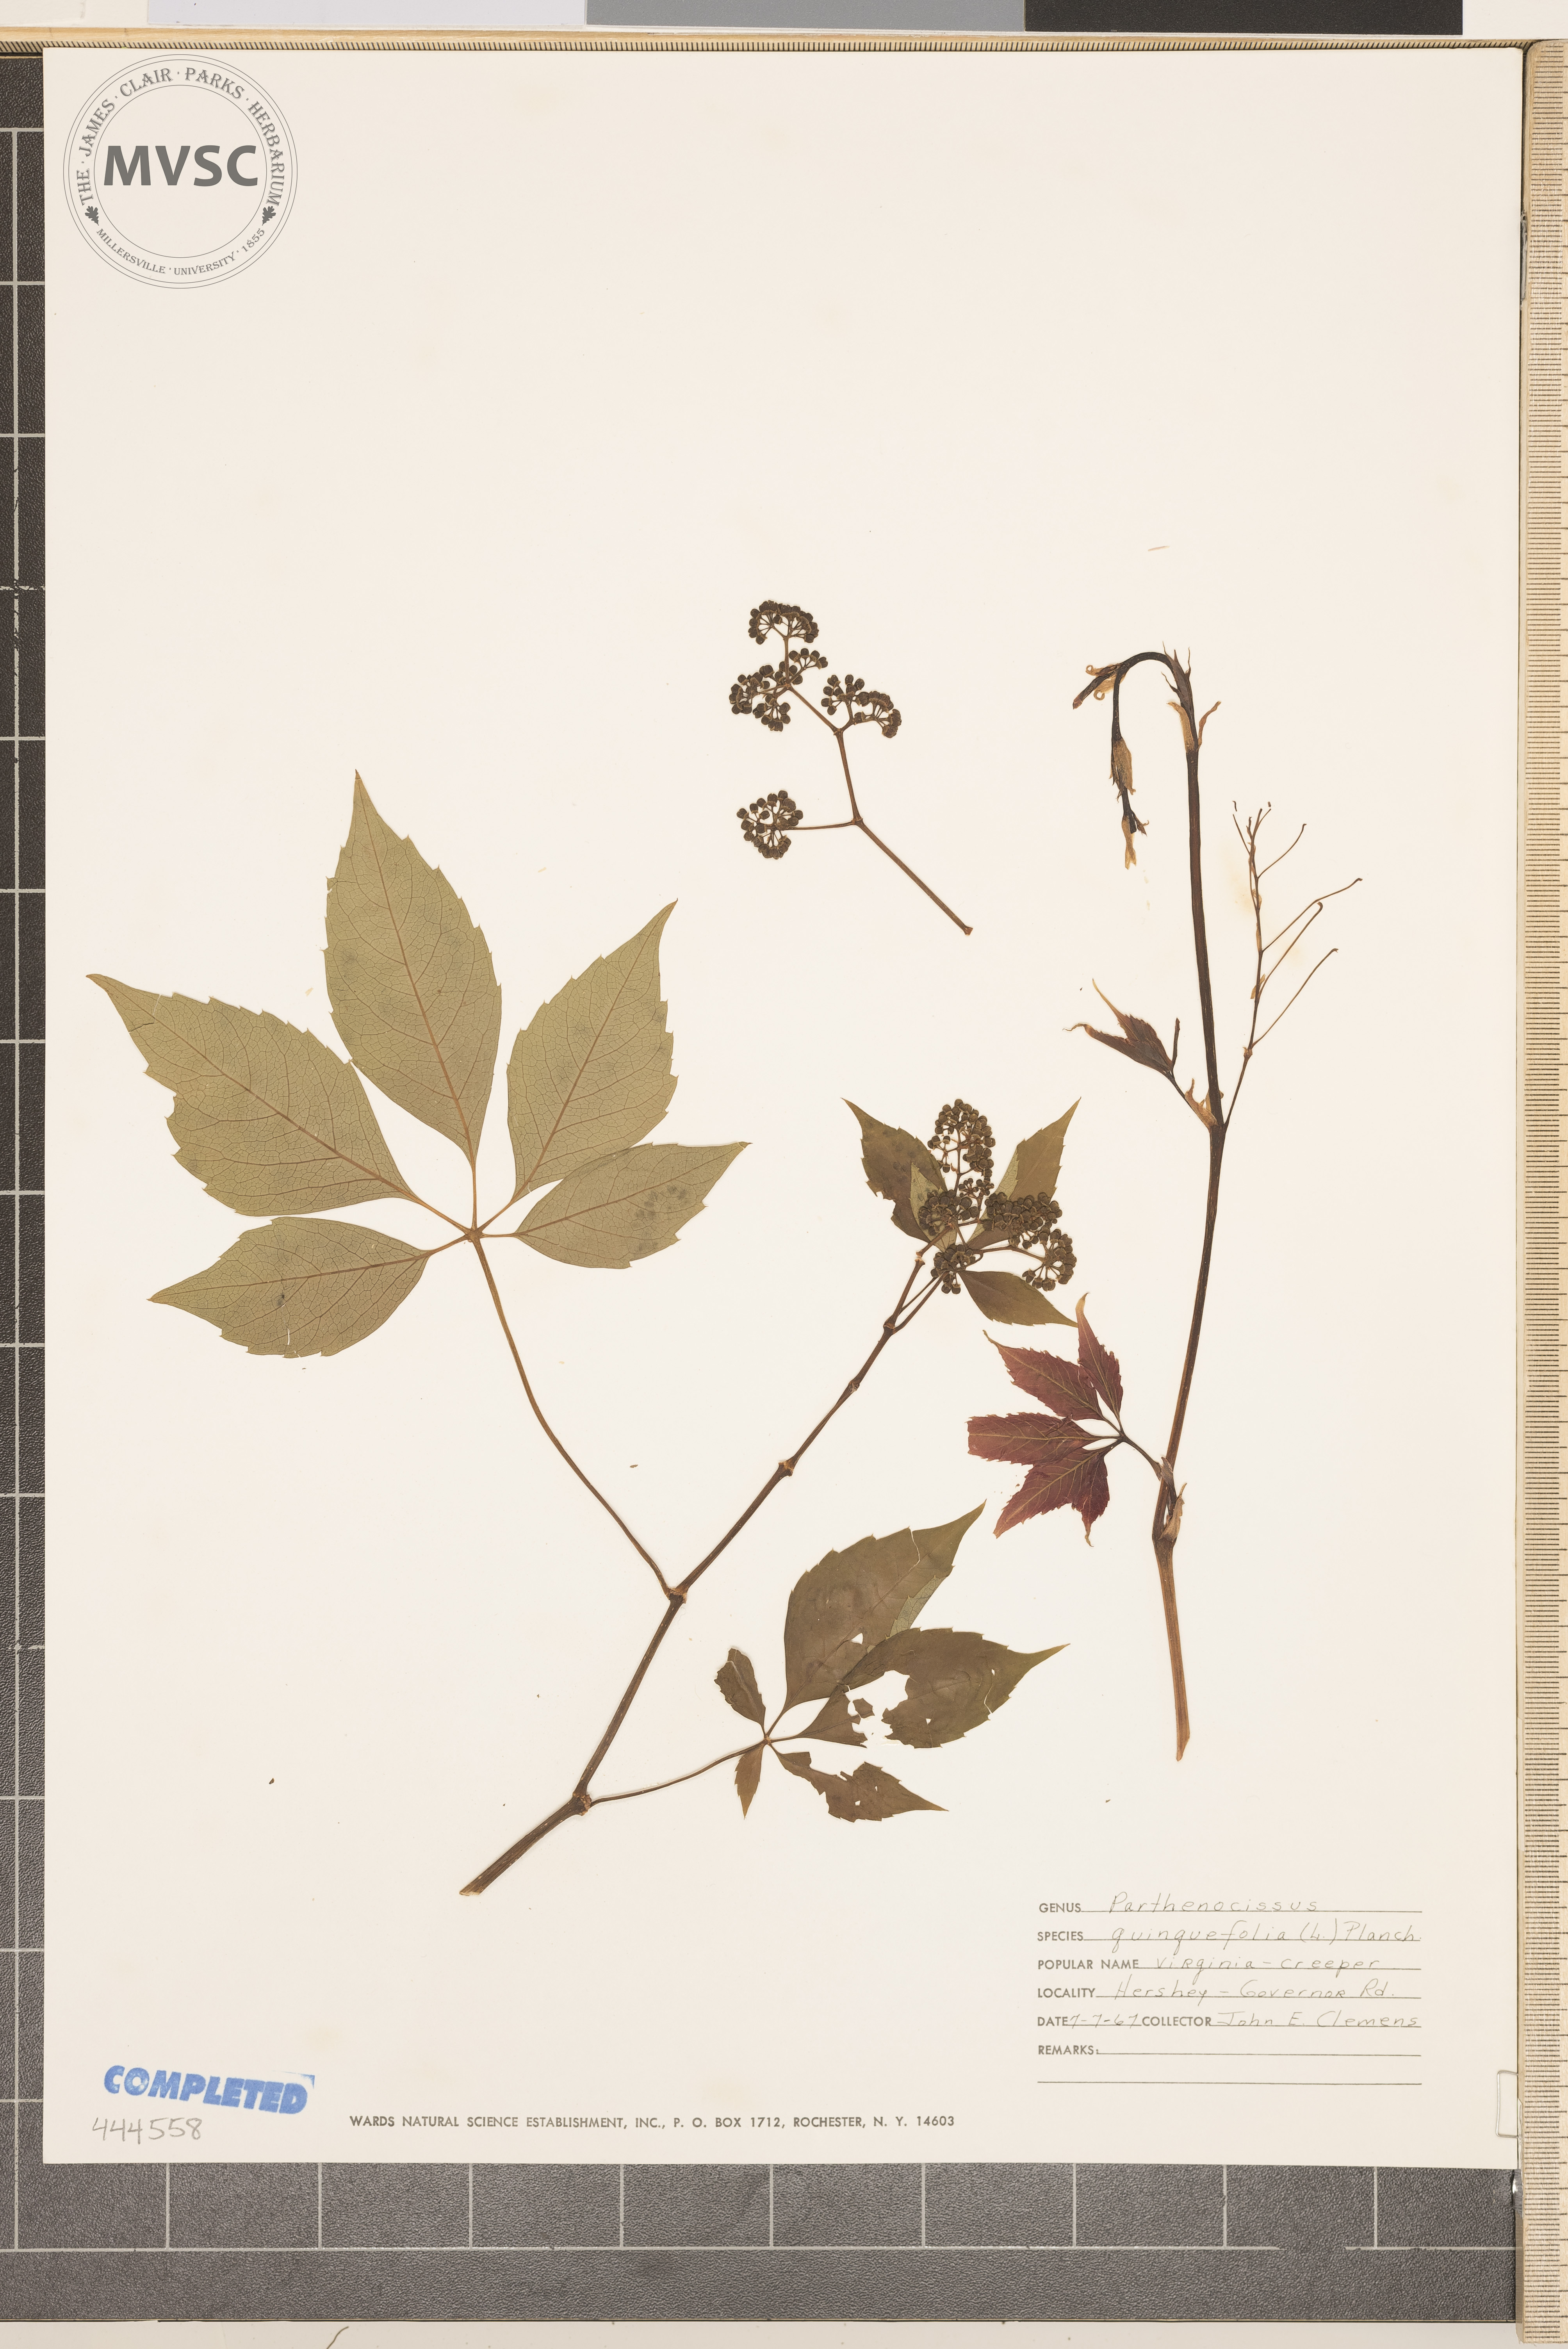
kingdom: Plantae
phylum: Tracheophyta
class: Magnoliopsida
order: Vitales
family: Vitaceae
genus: Parthenocissus
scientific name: Parthenocissus quinquefolia
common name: Virginia Creeper
